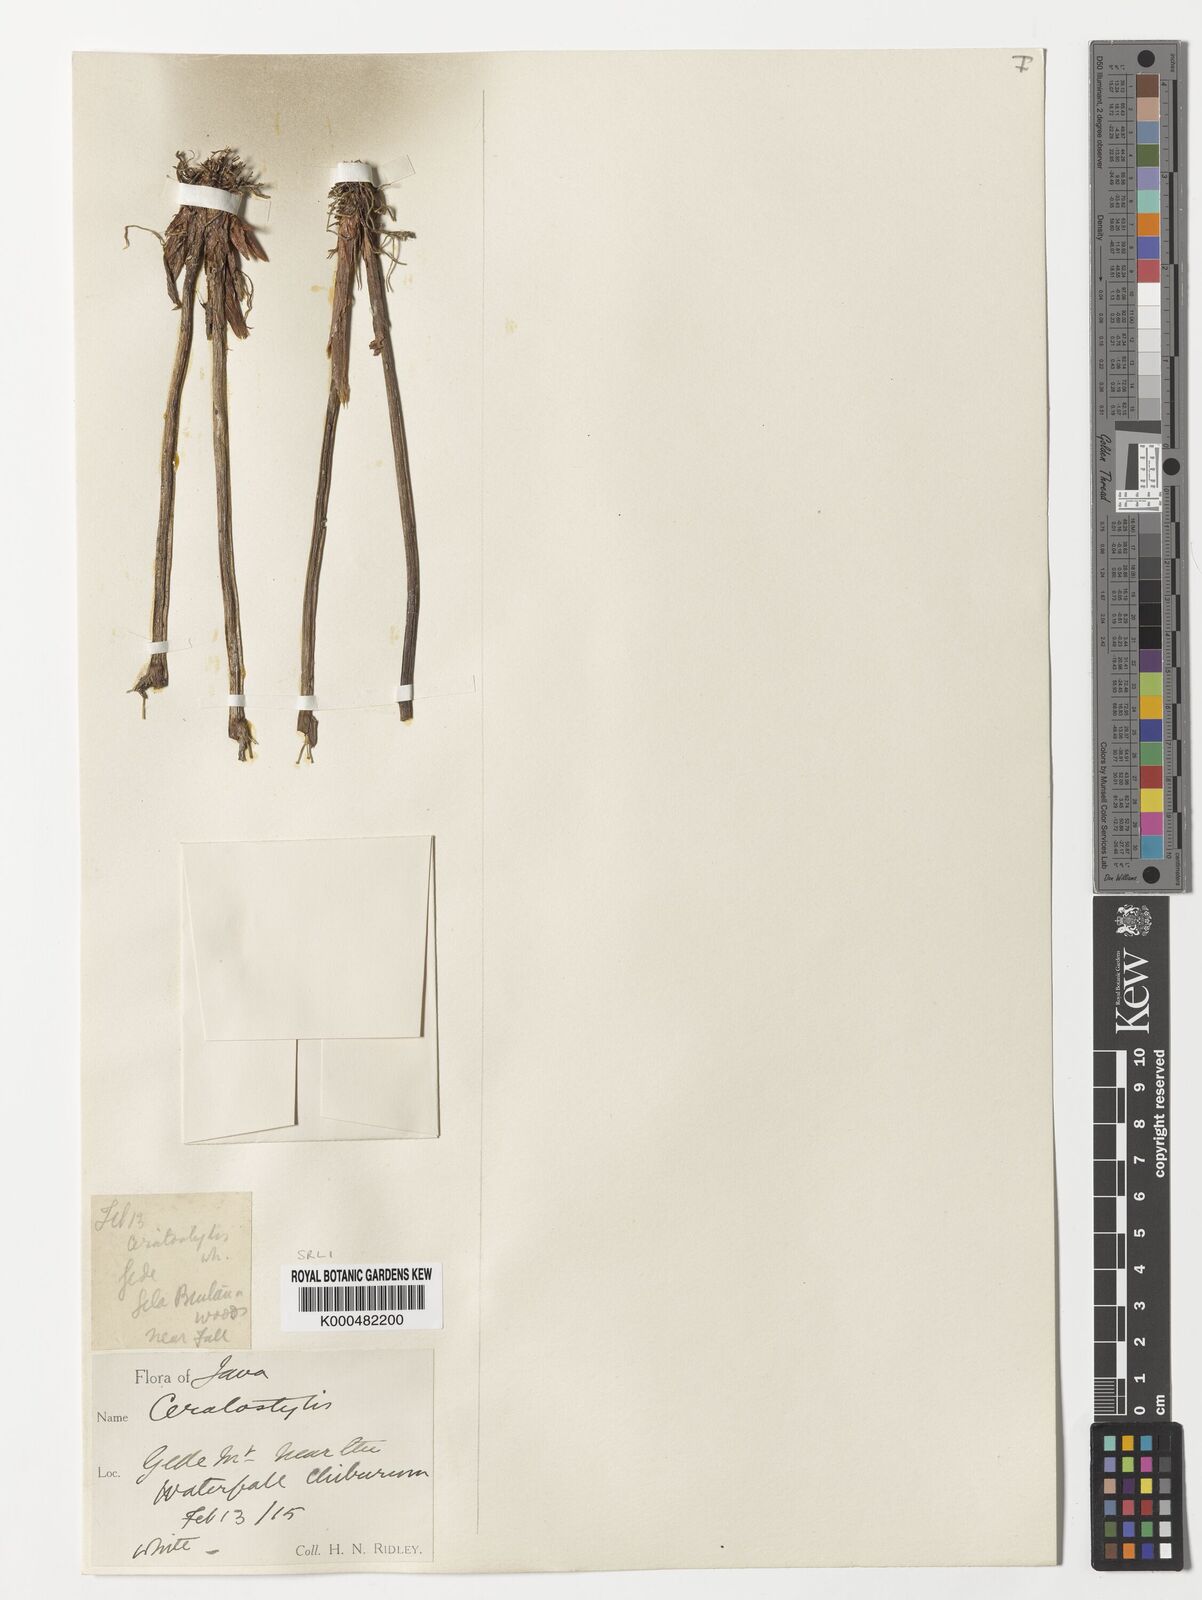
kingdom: Plantae
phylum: Tracheophyta
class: Liliopsida
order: Asparagales
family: Orchidaceae
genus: Ceratostylis
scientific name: Ceratostylis
